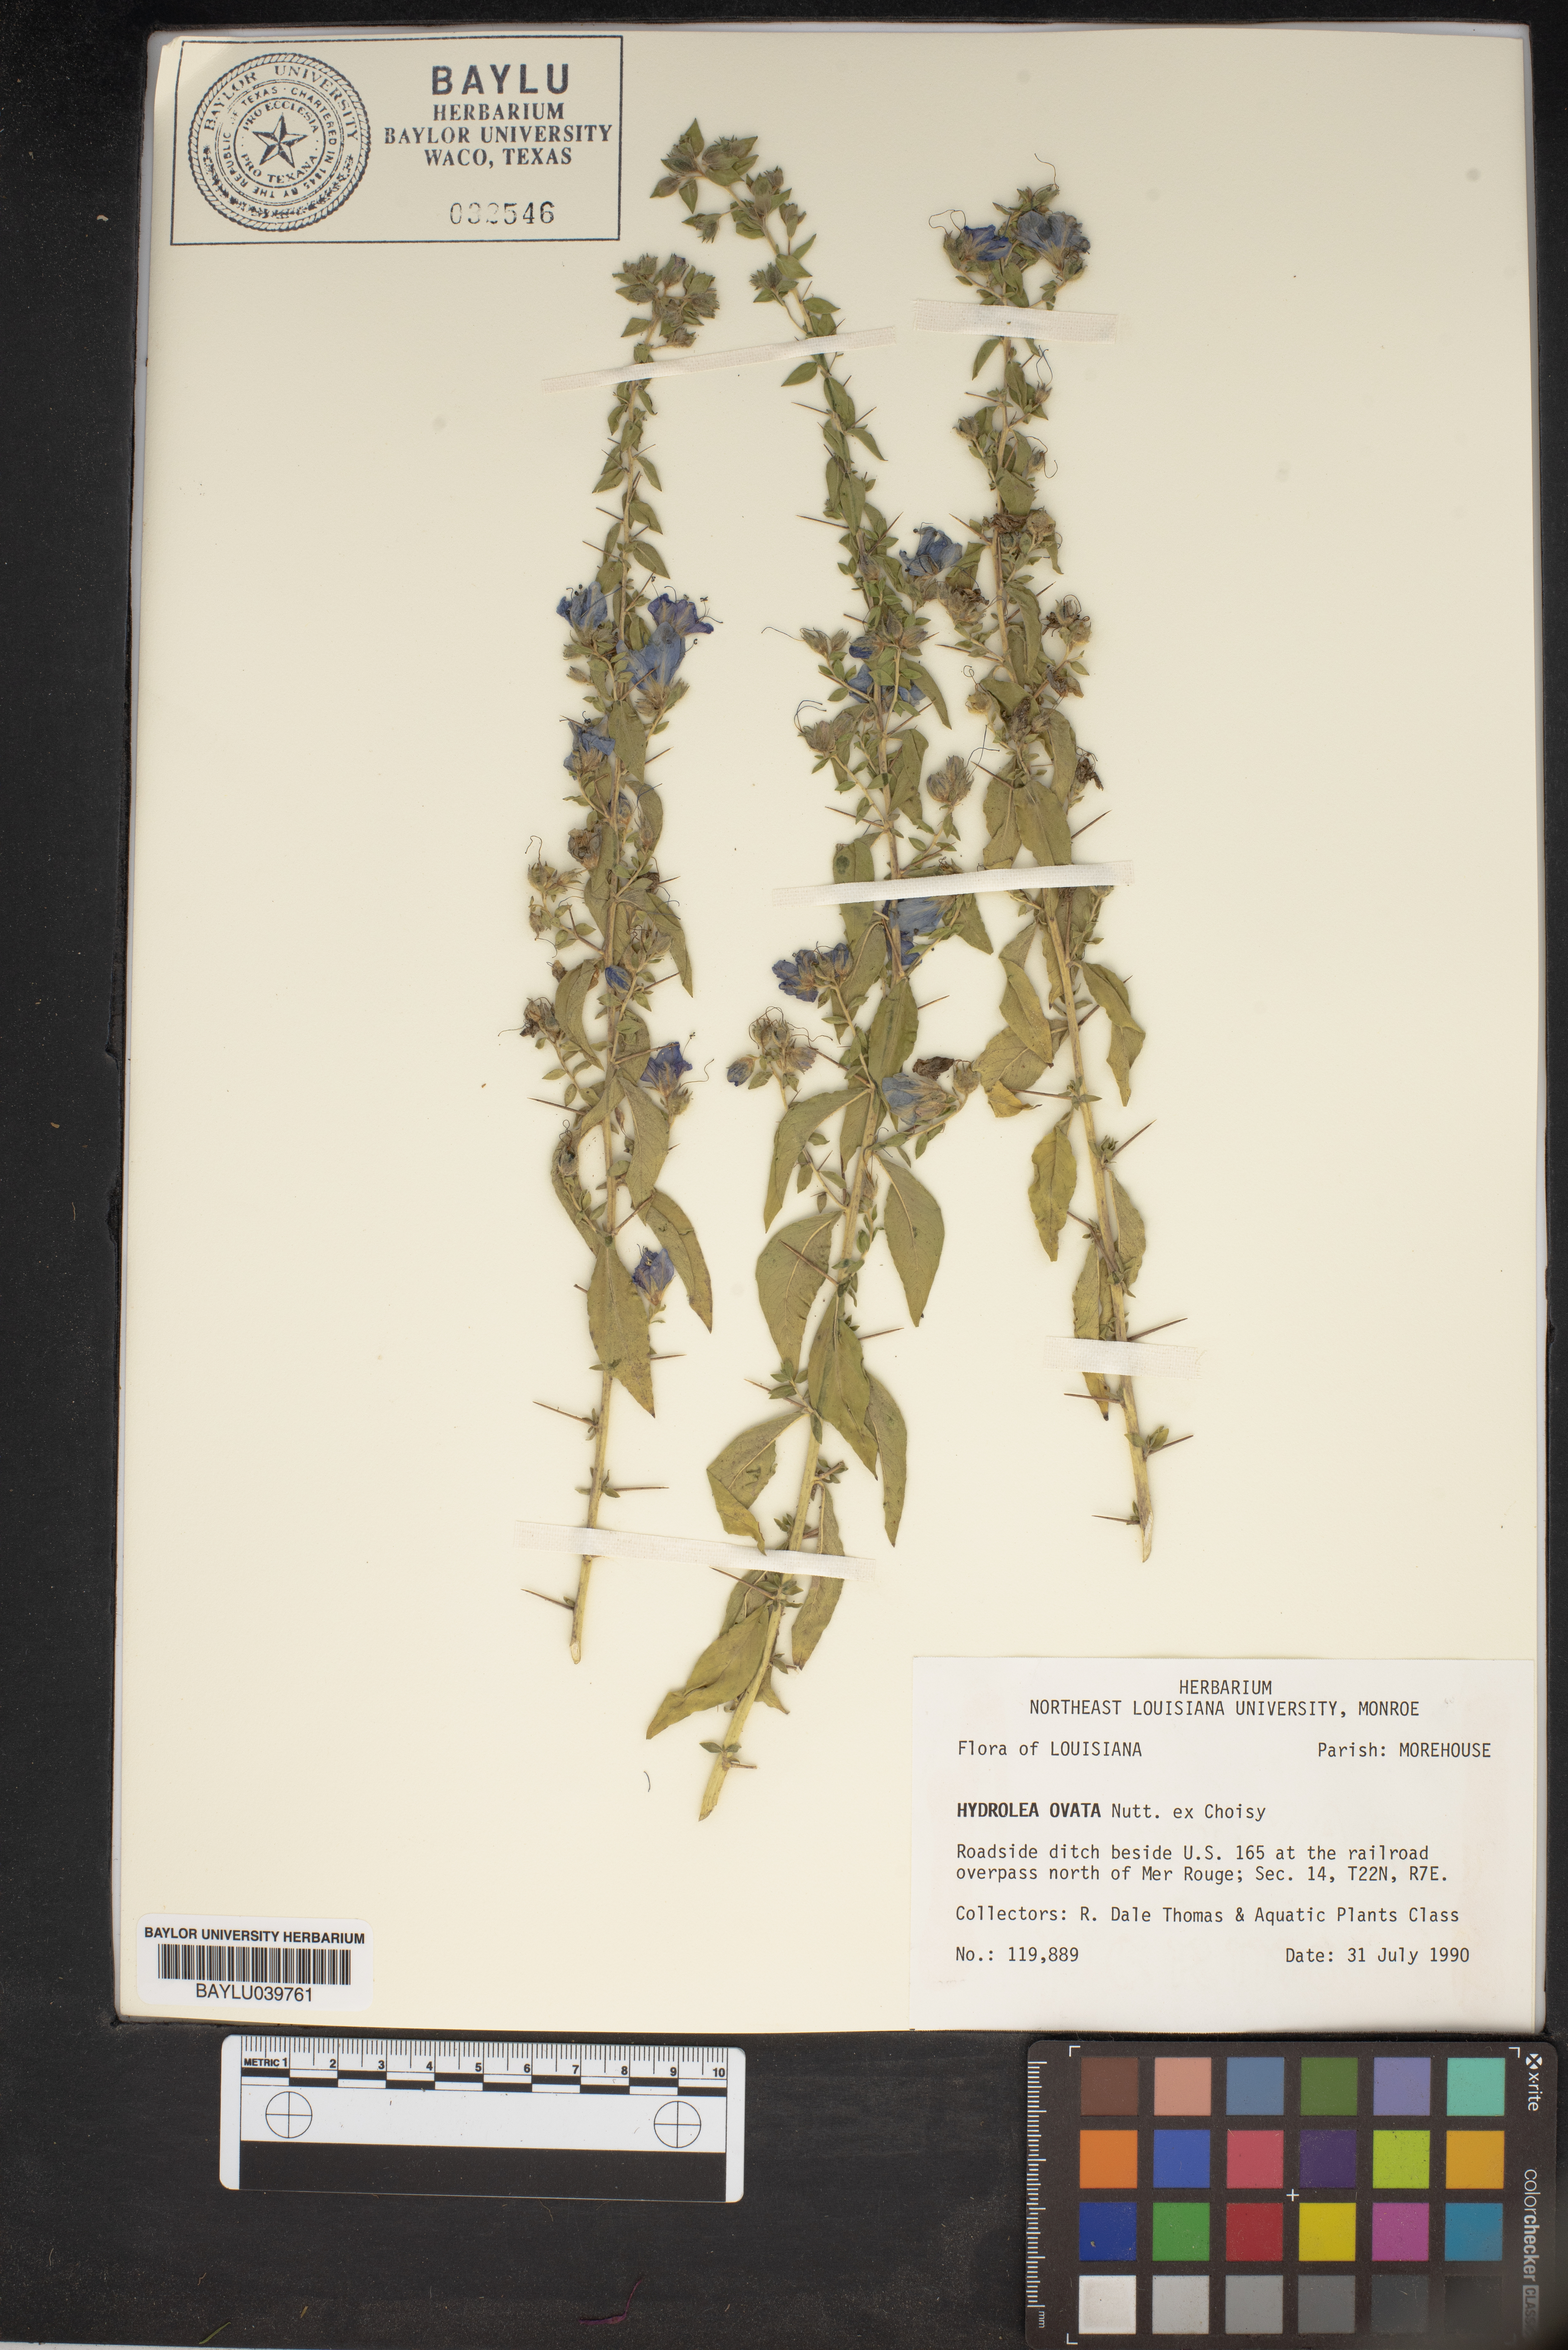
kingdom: Plantae
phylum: Tracheophyta
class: Magnoliopsida
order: Solanales
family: Hydroleaceae
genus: Hydrolea
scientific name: Hydrolea ovata
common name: Ovate false fiddleleaf
